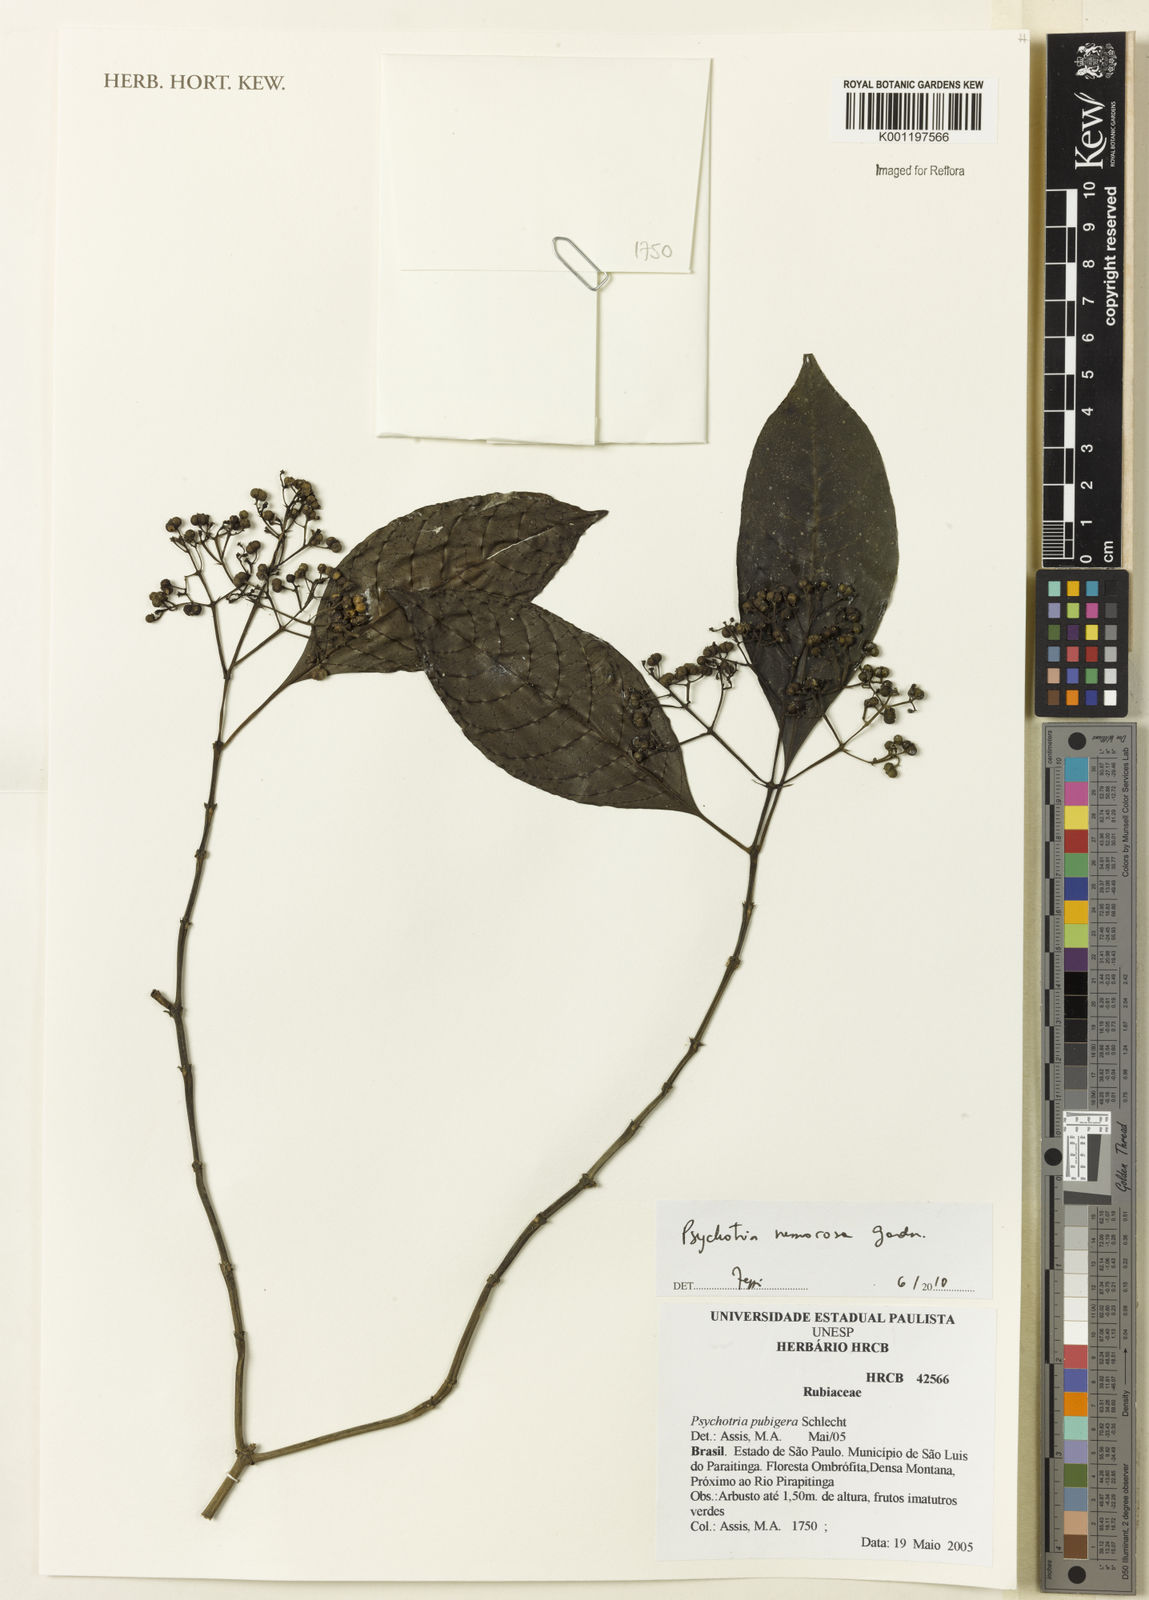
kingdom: Plantae
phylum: Tracheophyta
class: Magnoliopsida
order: Gentianales
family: Rubiaceae
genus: Psychotria
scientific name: Psychotria nemorosa
